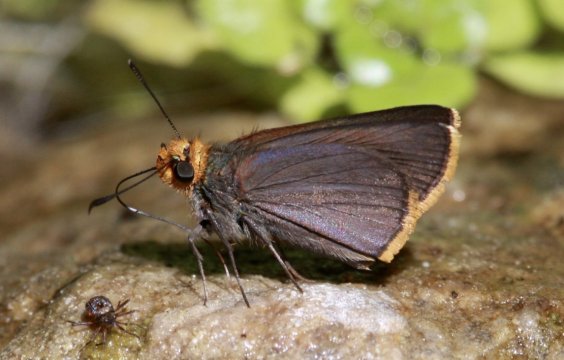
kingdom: Animalia
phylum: Arthropoda
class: Insecta
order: Lepidoptera
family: Hesperiidae
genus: Mastor
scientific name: Mastor fimbriata
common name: Orange-edged Roadside-Skipper
